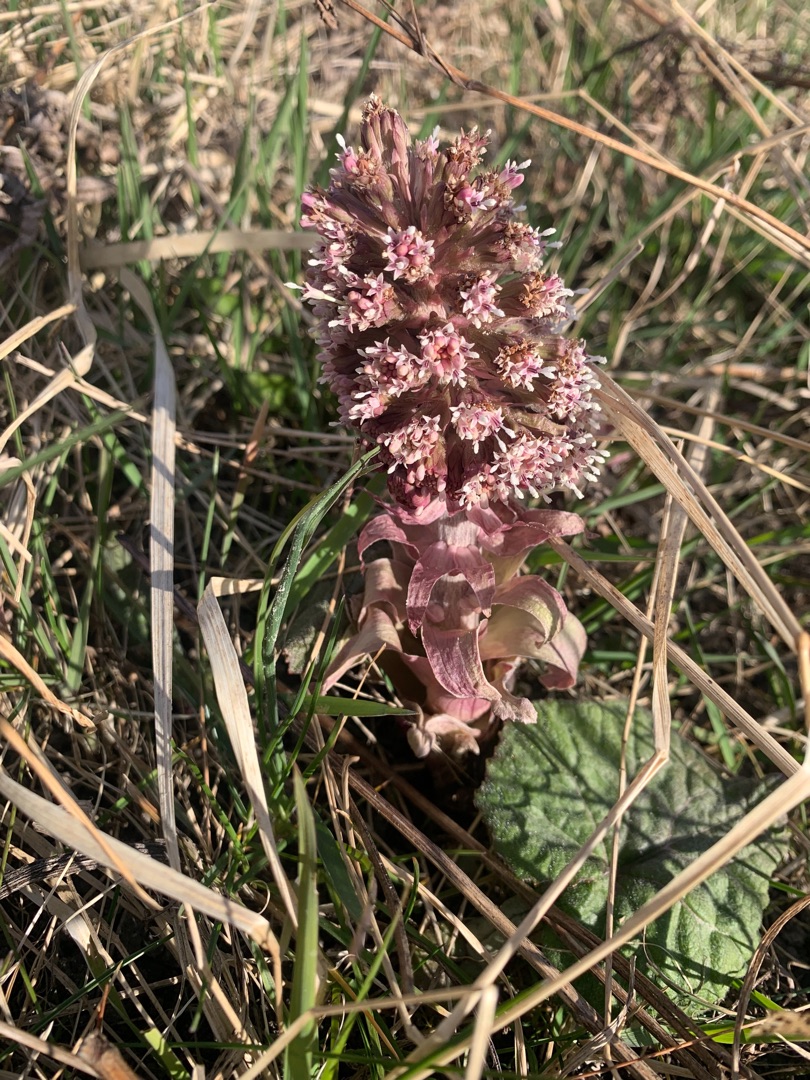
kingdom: Plantae
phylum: Tracheophyta
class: Magnoliopsida
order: Asterales
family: Asteraceae
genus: Petasites
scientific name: Petasites hybridus
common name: Rød hestehov
